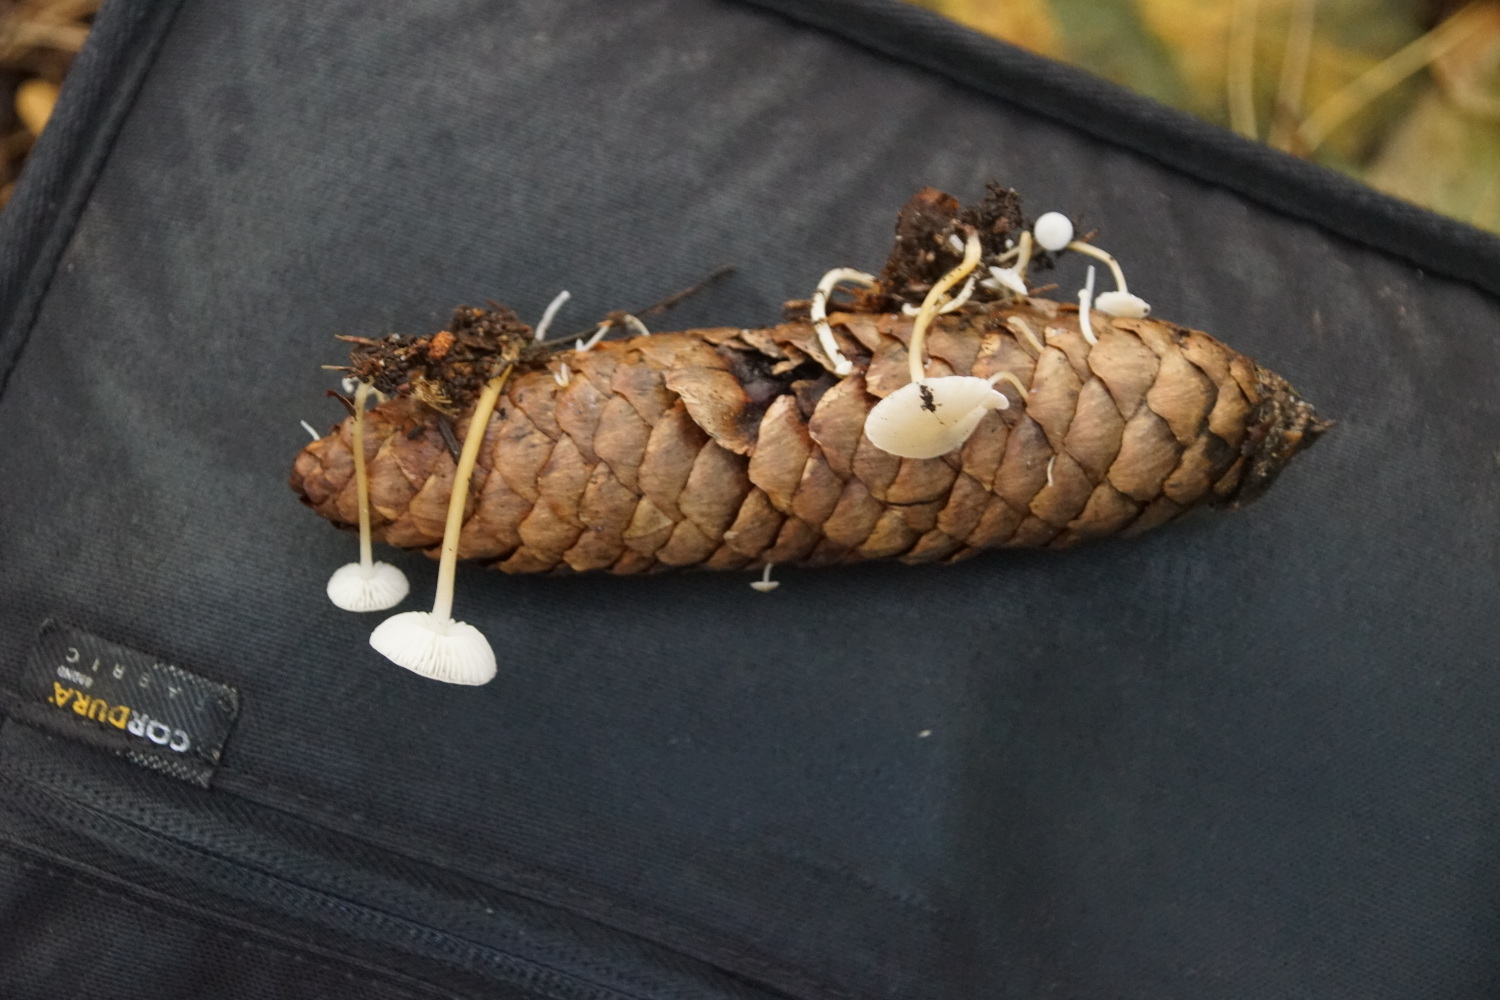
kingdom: Fungi
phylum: Basidiomycota
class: Agaricomycetes
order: Agaricales
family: Physalacriaceae
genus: Strobilurus
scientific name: Strobilurus esculentus
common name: gran-koglehat
